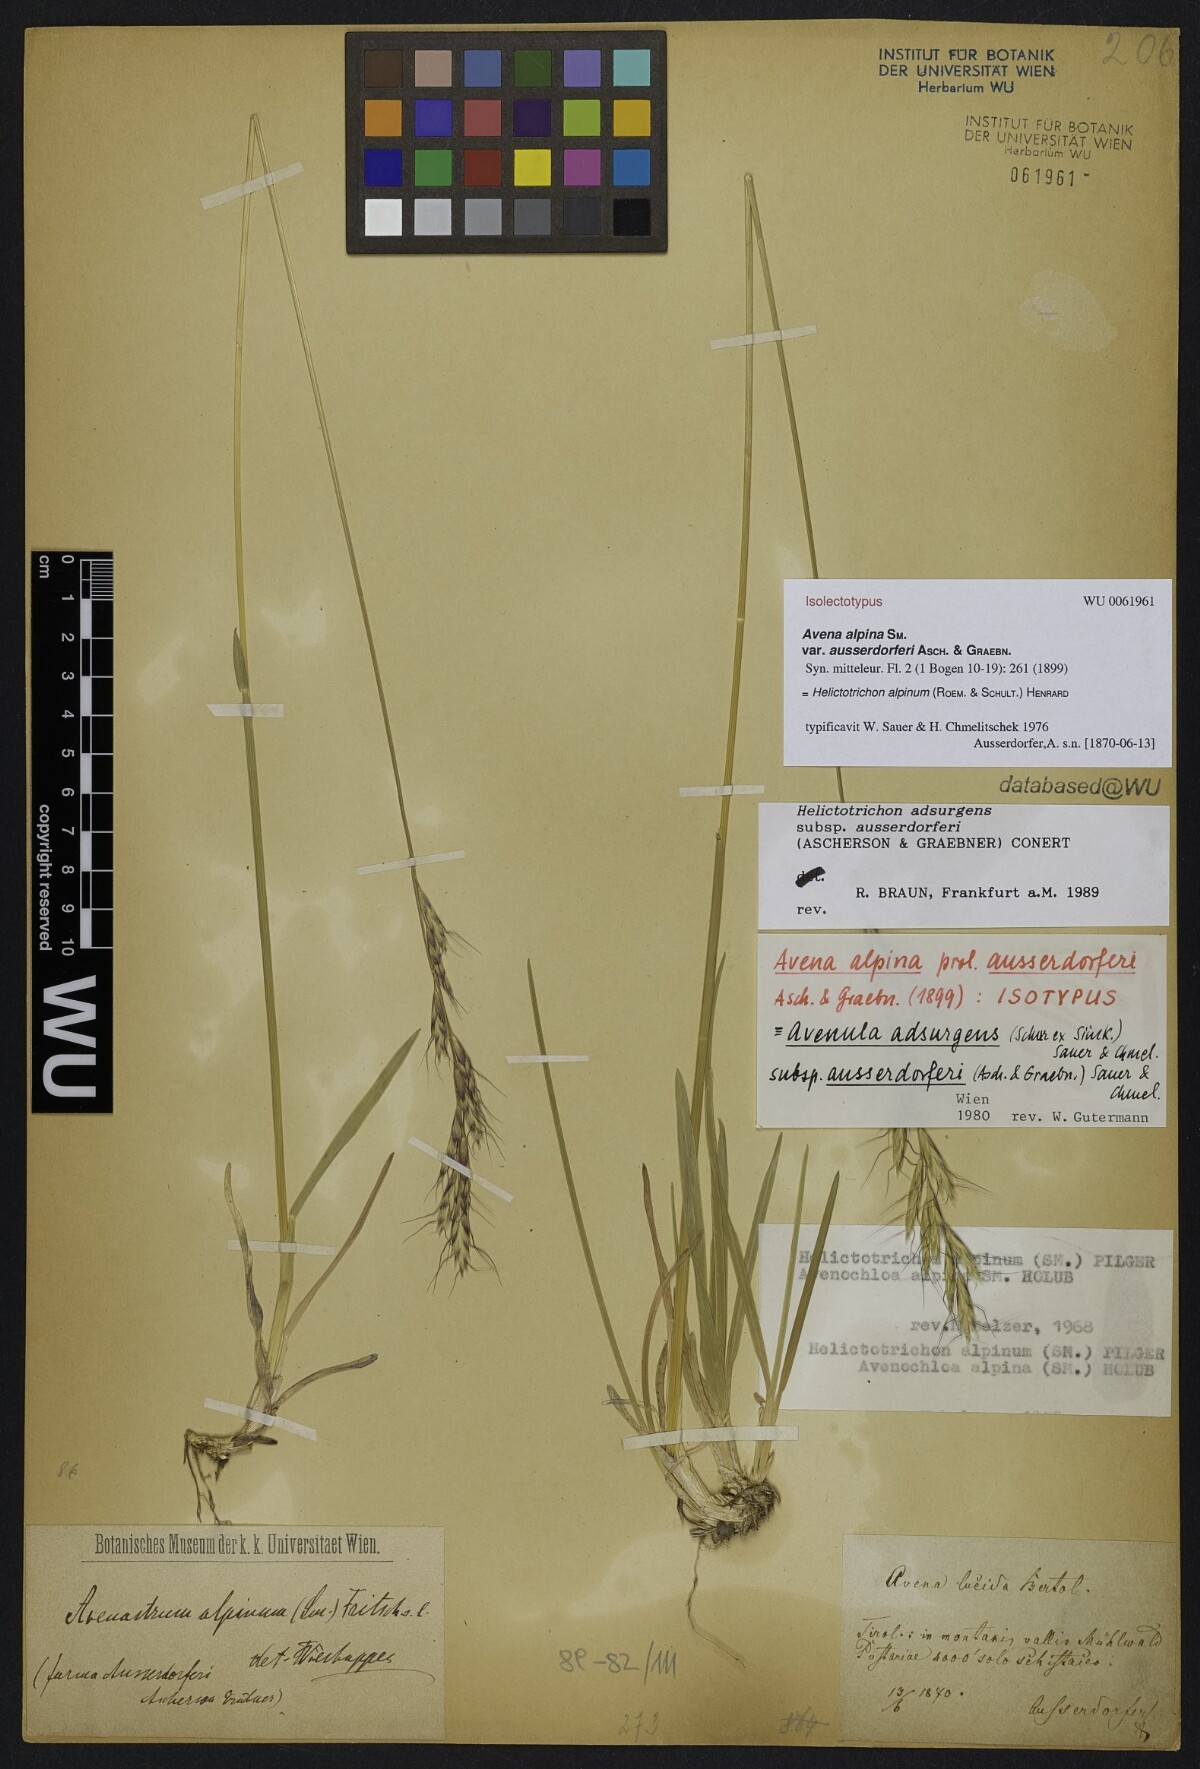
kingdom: Plantae
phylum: Tracheophyta
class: Liliopsida
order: Poales
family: Poaceae
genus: Helictochloa
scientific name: Helictochloa praeusta
